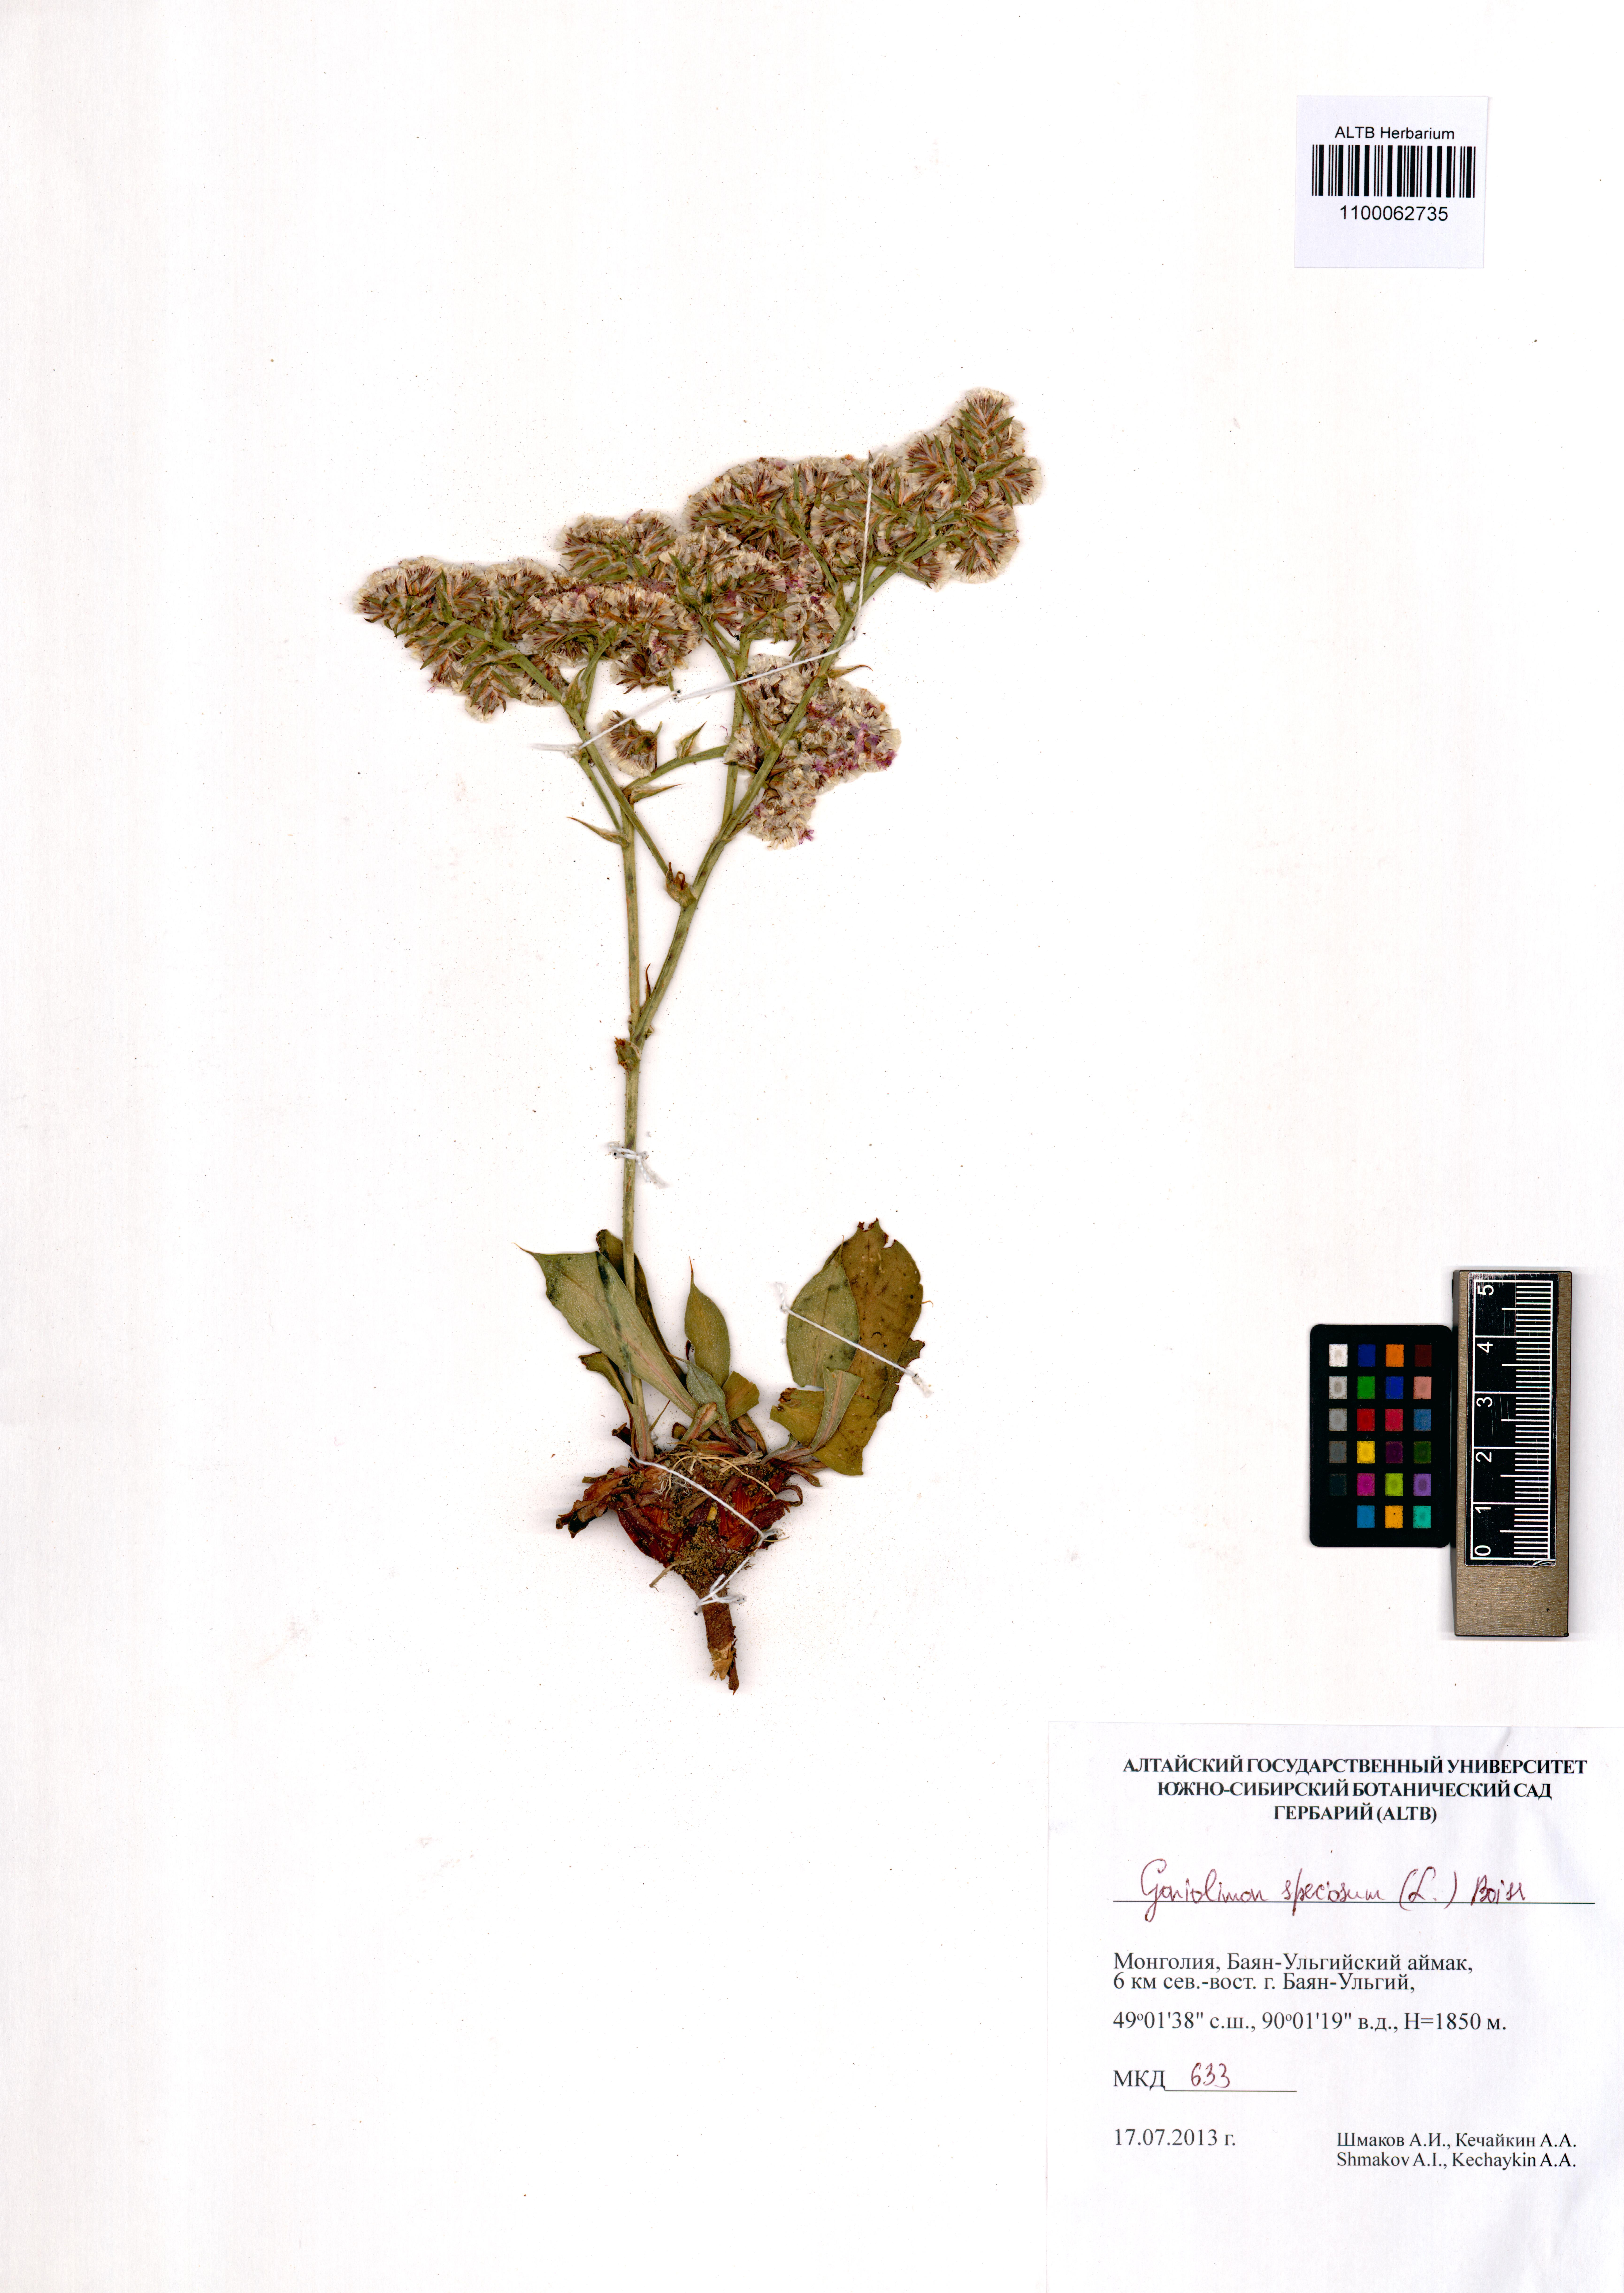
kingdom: Plantae
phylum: Tracheophyta
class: Magnoliopsida
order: Caryophyllales
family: Plumbaginaceae
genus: Goniolimon
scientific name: Goniolimon speciosum
